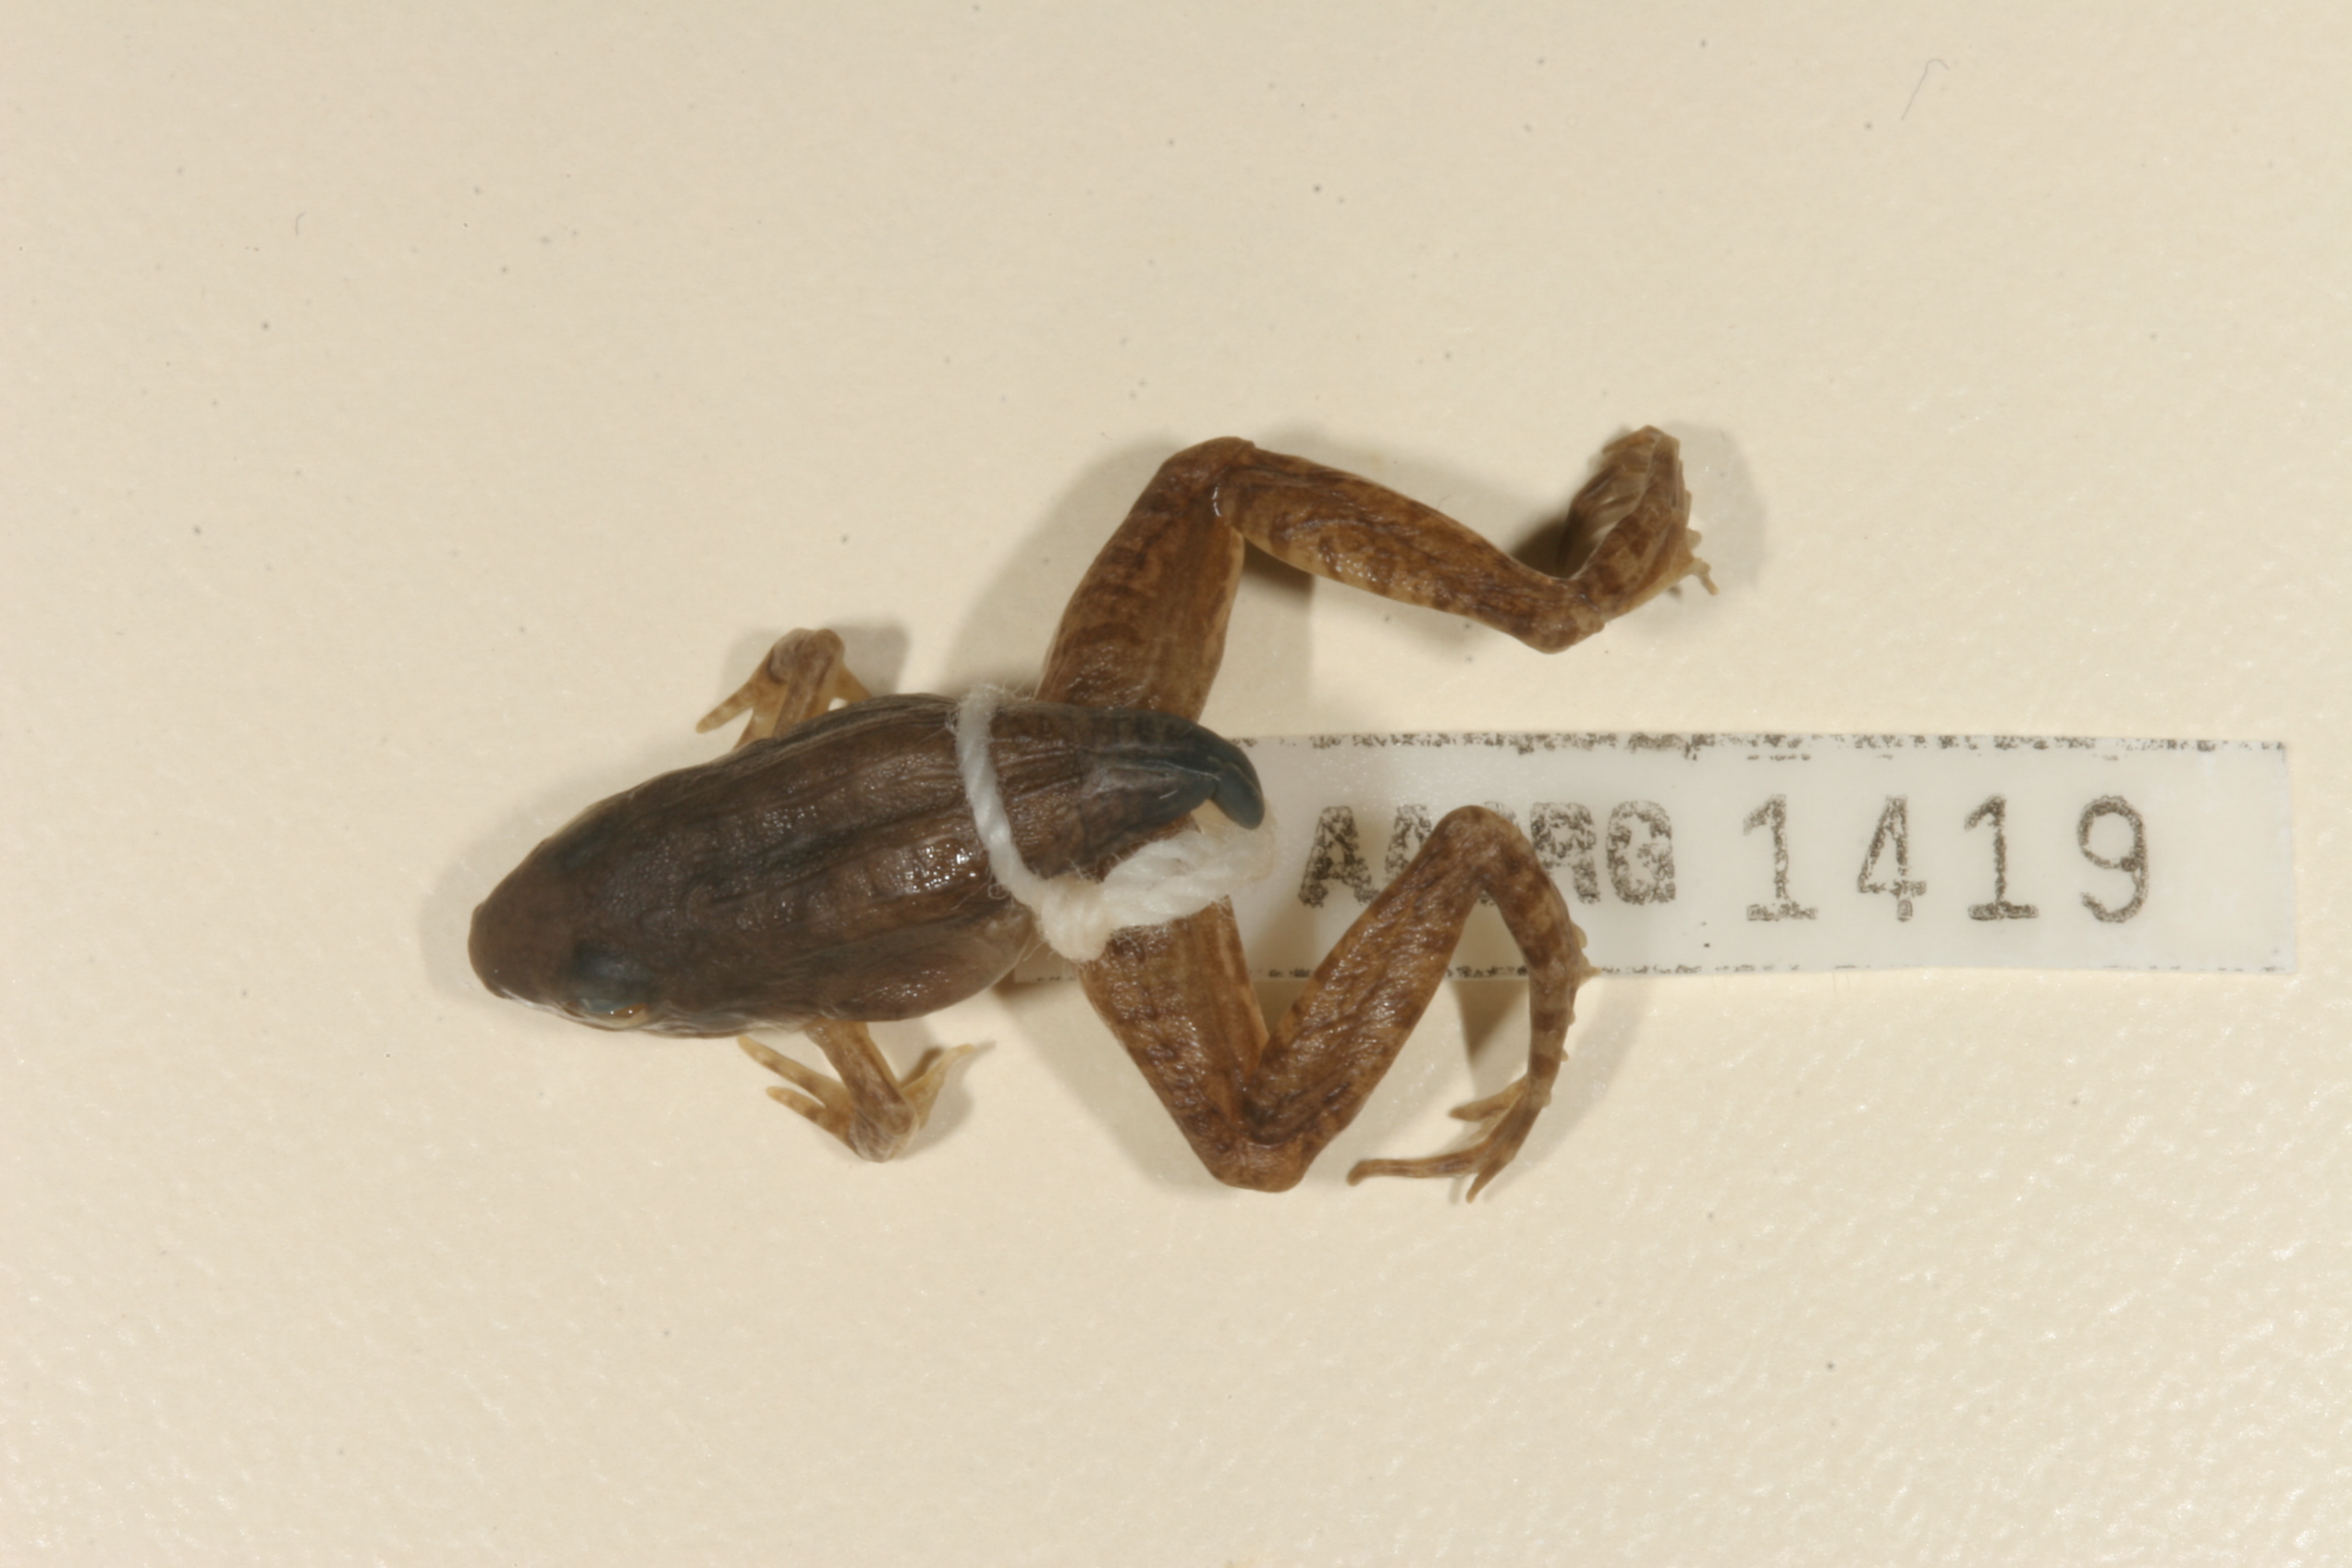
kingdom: Animalia
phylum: Chordata
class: Amphibia
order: Anura
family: Ptychadenidae
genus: Ptychadena
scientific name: Ptychadena anchietae
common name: Anchieta's ridged frog
